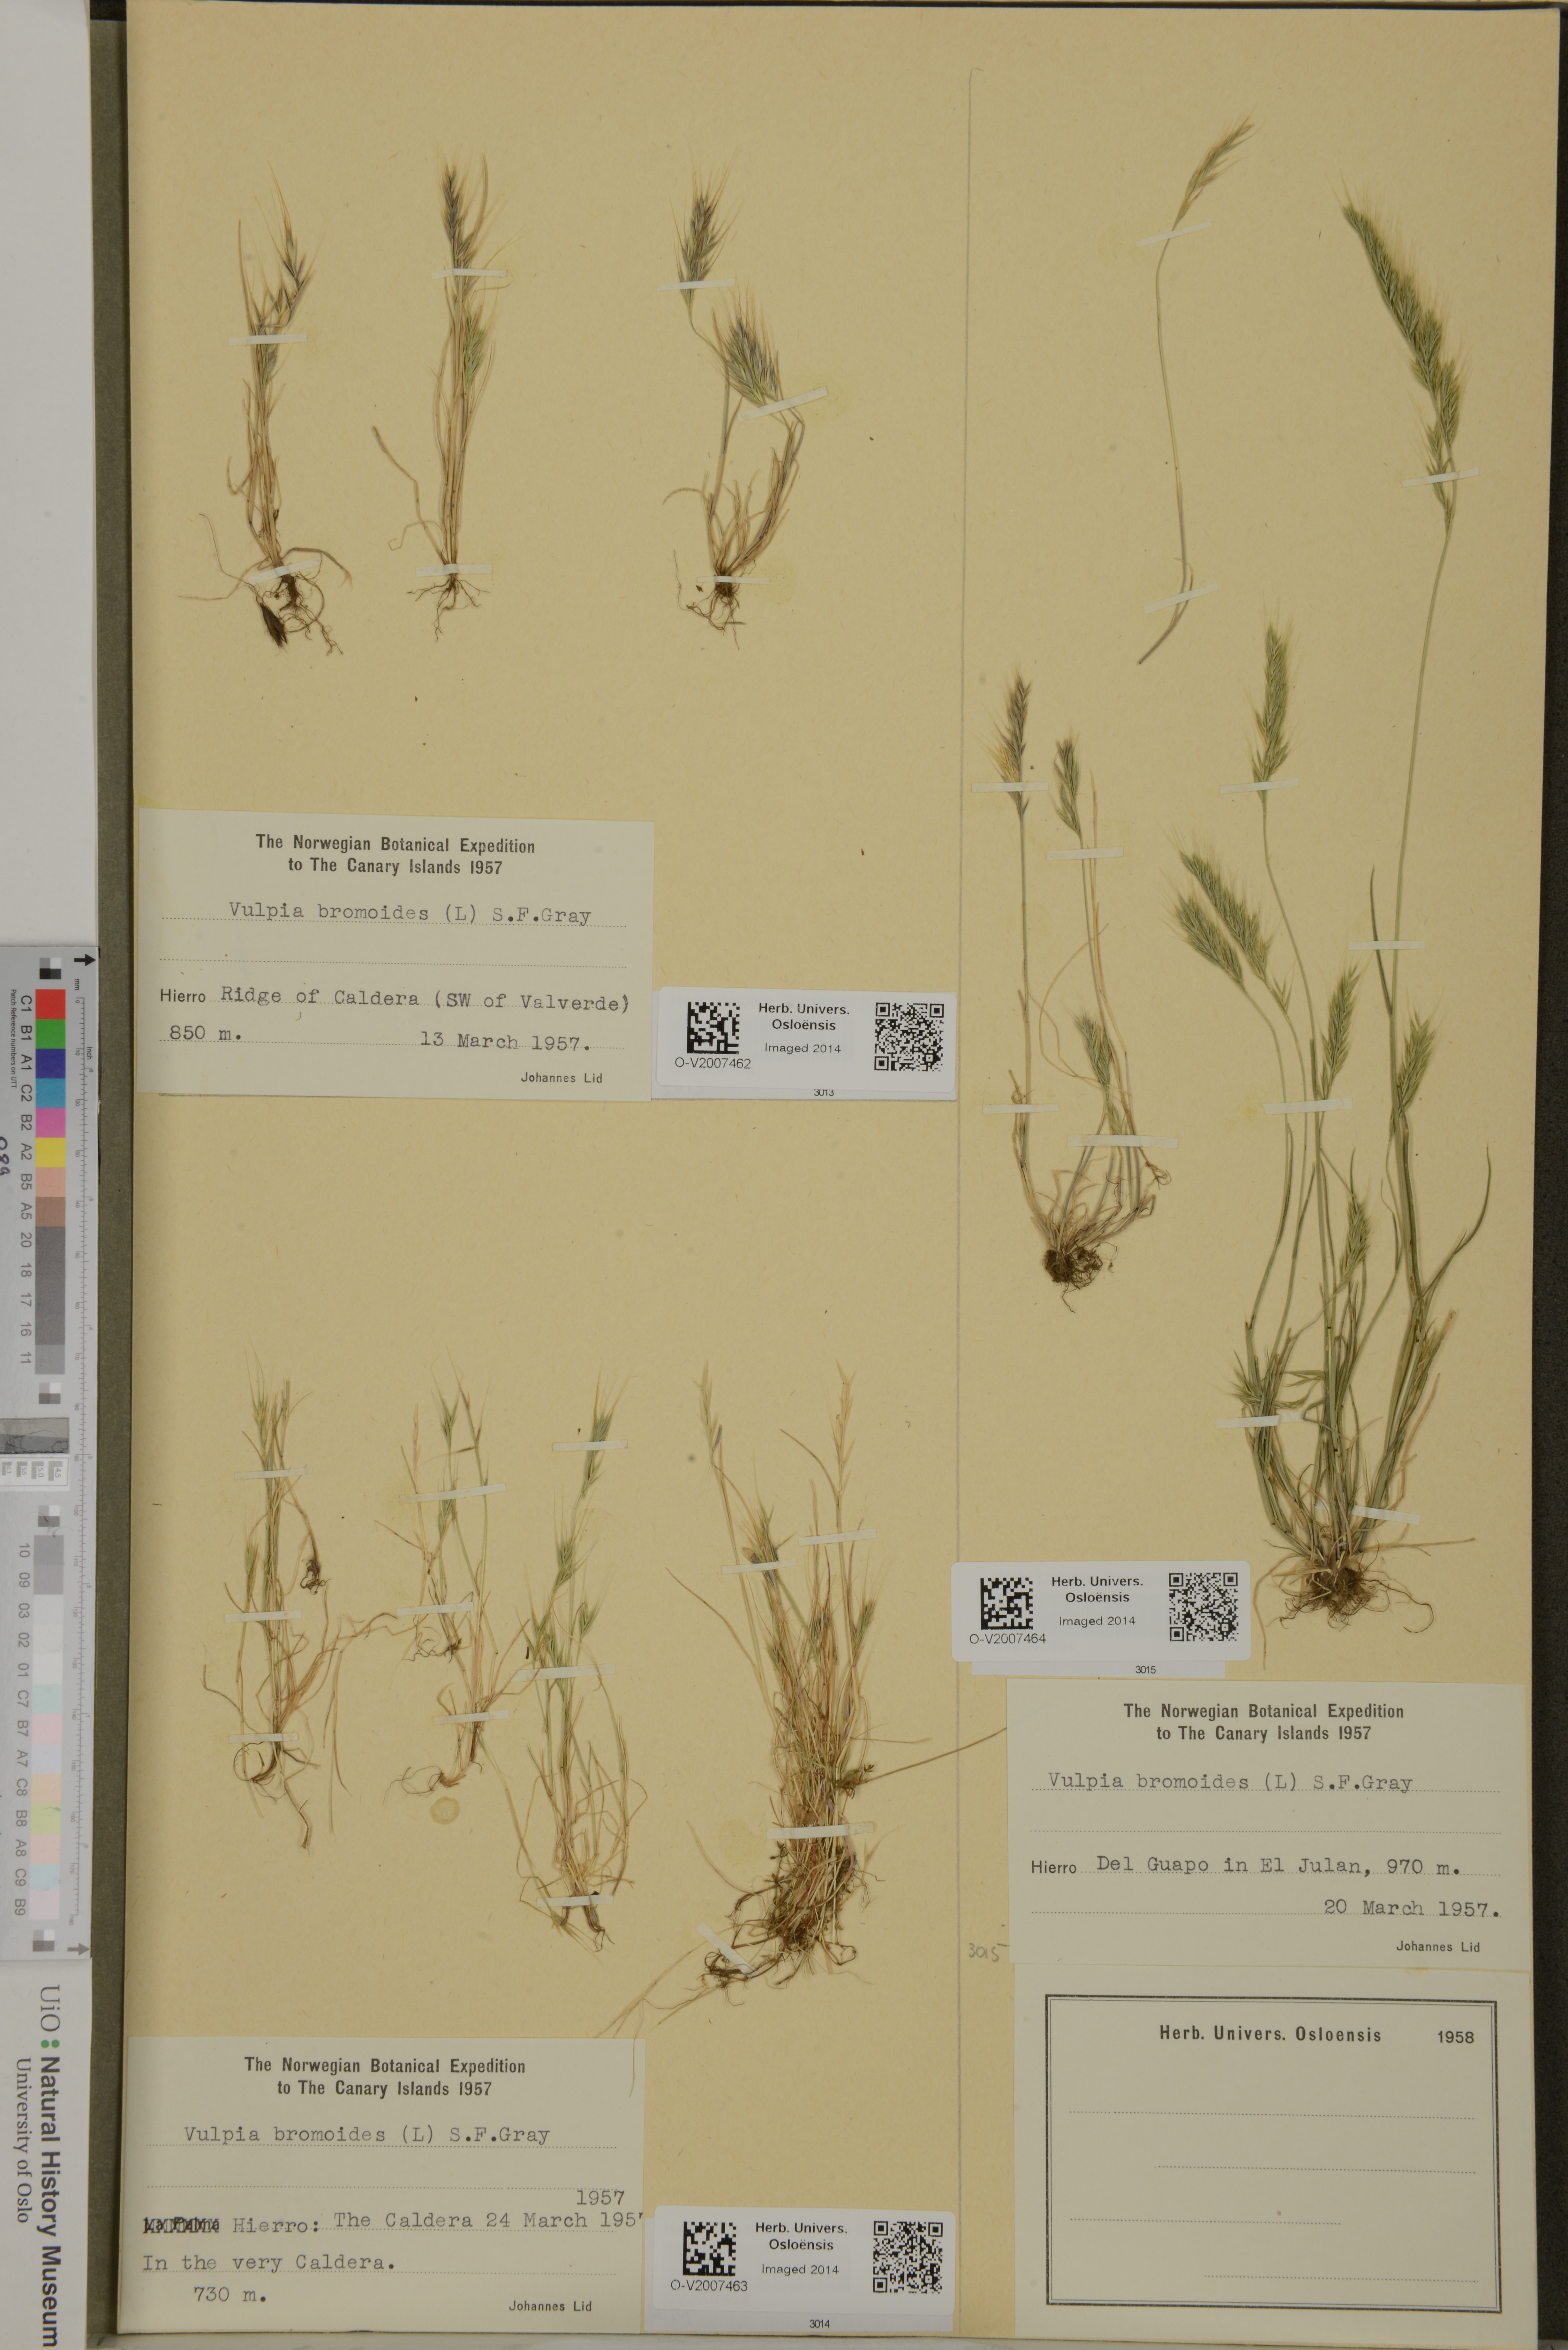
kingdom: Plantae
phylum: Tracheophyta
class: Liliopsida
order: Poales
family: Poaceae
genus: Festuca
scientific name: Festuca bromoides
